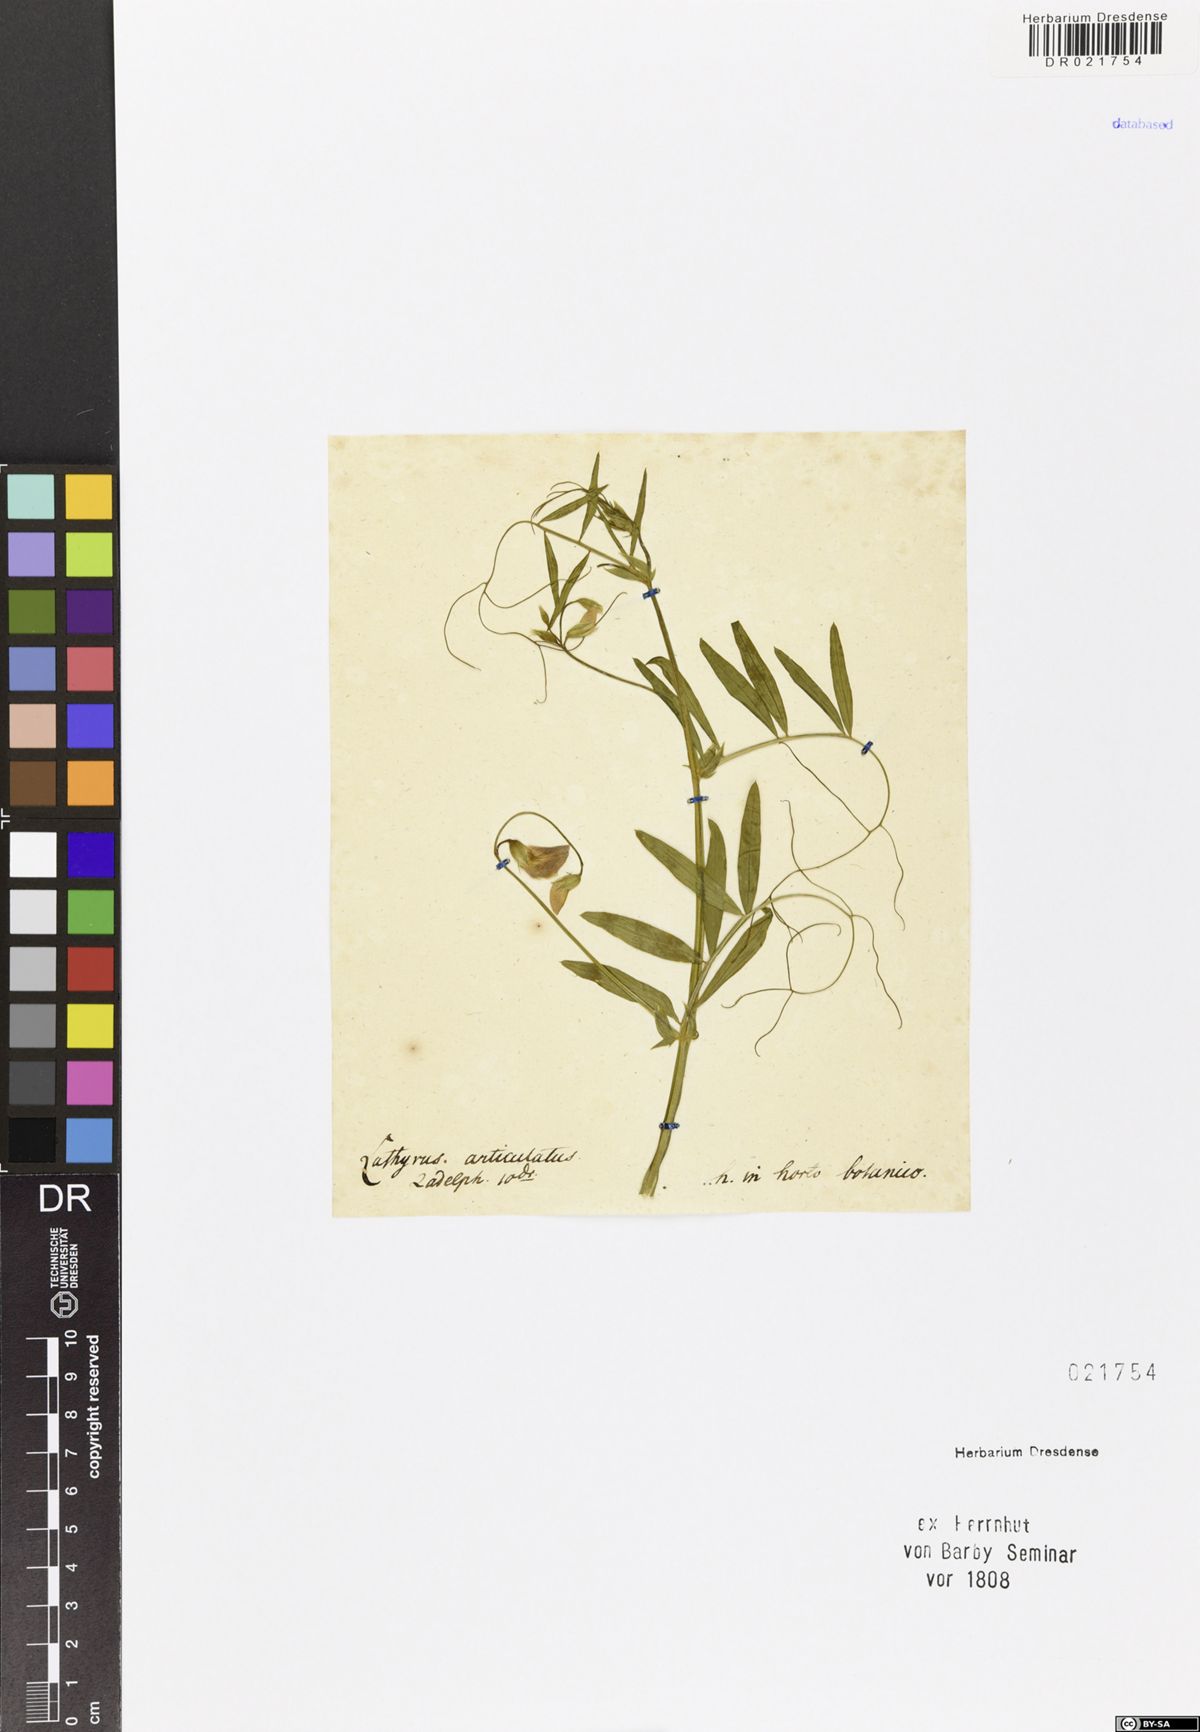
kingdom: Plantae
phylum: Tracheophyta
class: Magnoliopsida
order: Fabales
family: Fabaceae
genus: Lathyrus
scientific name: Lathyrus articulatus
